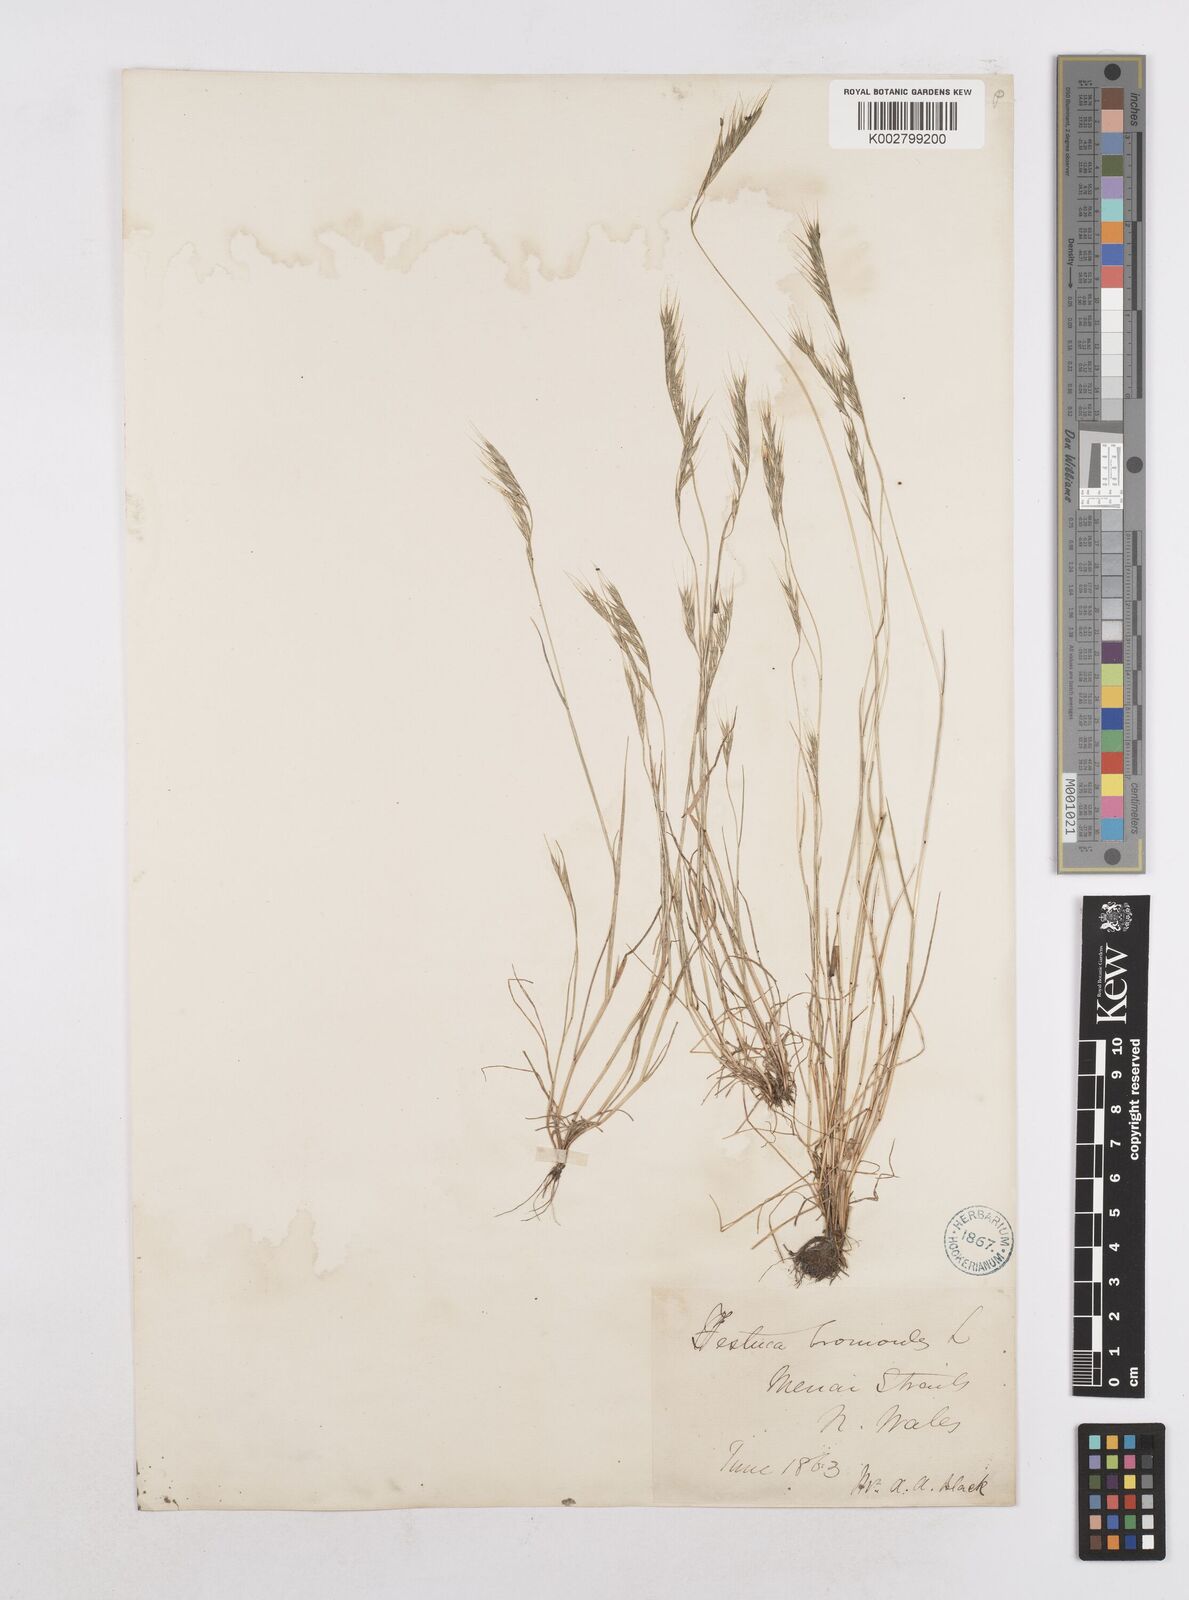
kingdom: Plantae
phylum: Tracheophyta
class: Liliopsida
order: Poales
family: Poaceae
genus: Festuca
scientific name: Festuca bromoides
